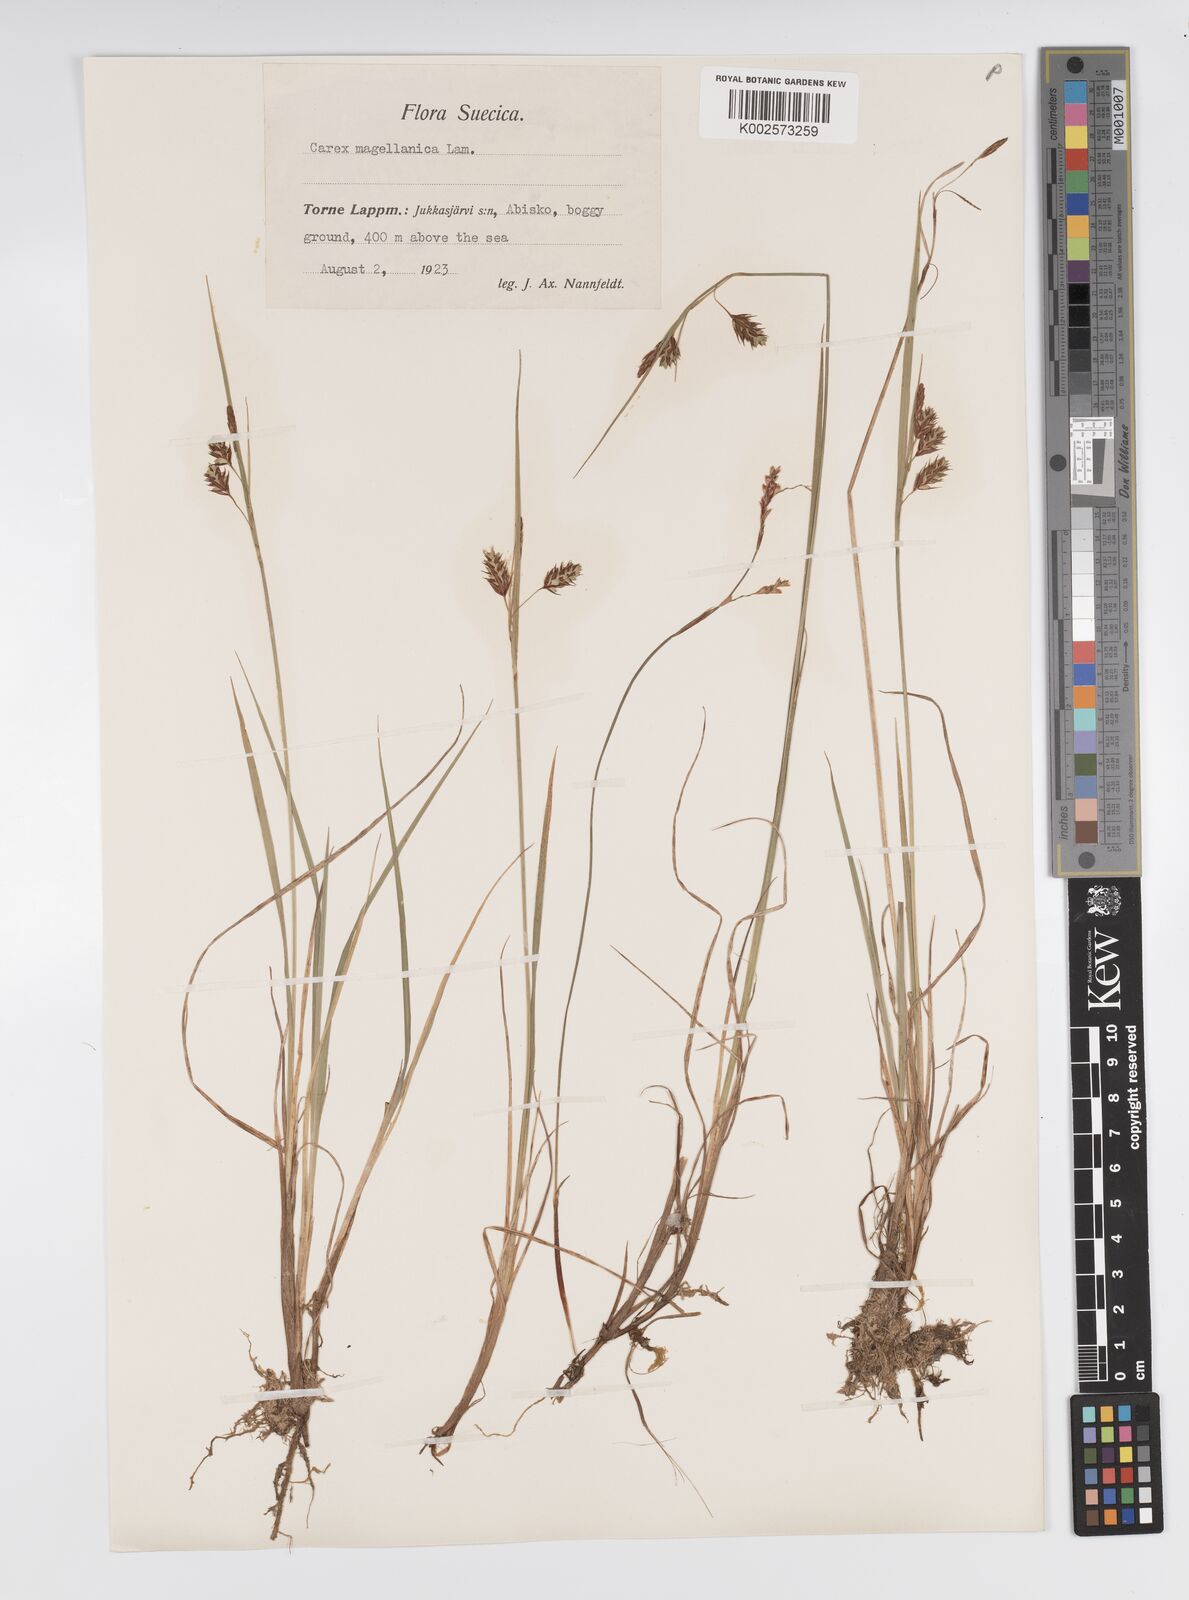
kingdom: Plantae
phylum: Tracheophyta
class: Liliopsida
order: Poales
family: Cyperaceae
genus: Carex
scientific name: Carex magellanica
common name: Bog sedge
